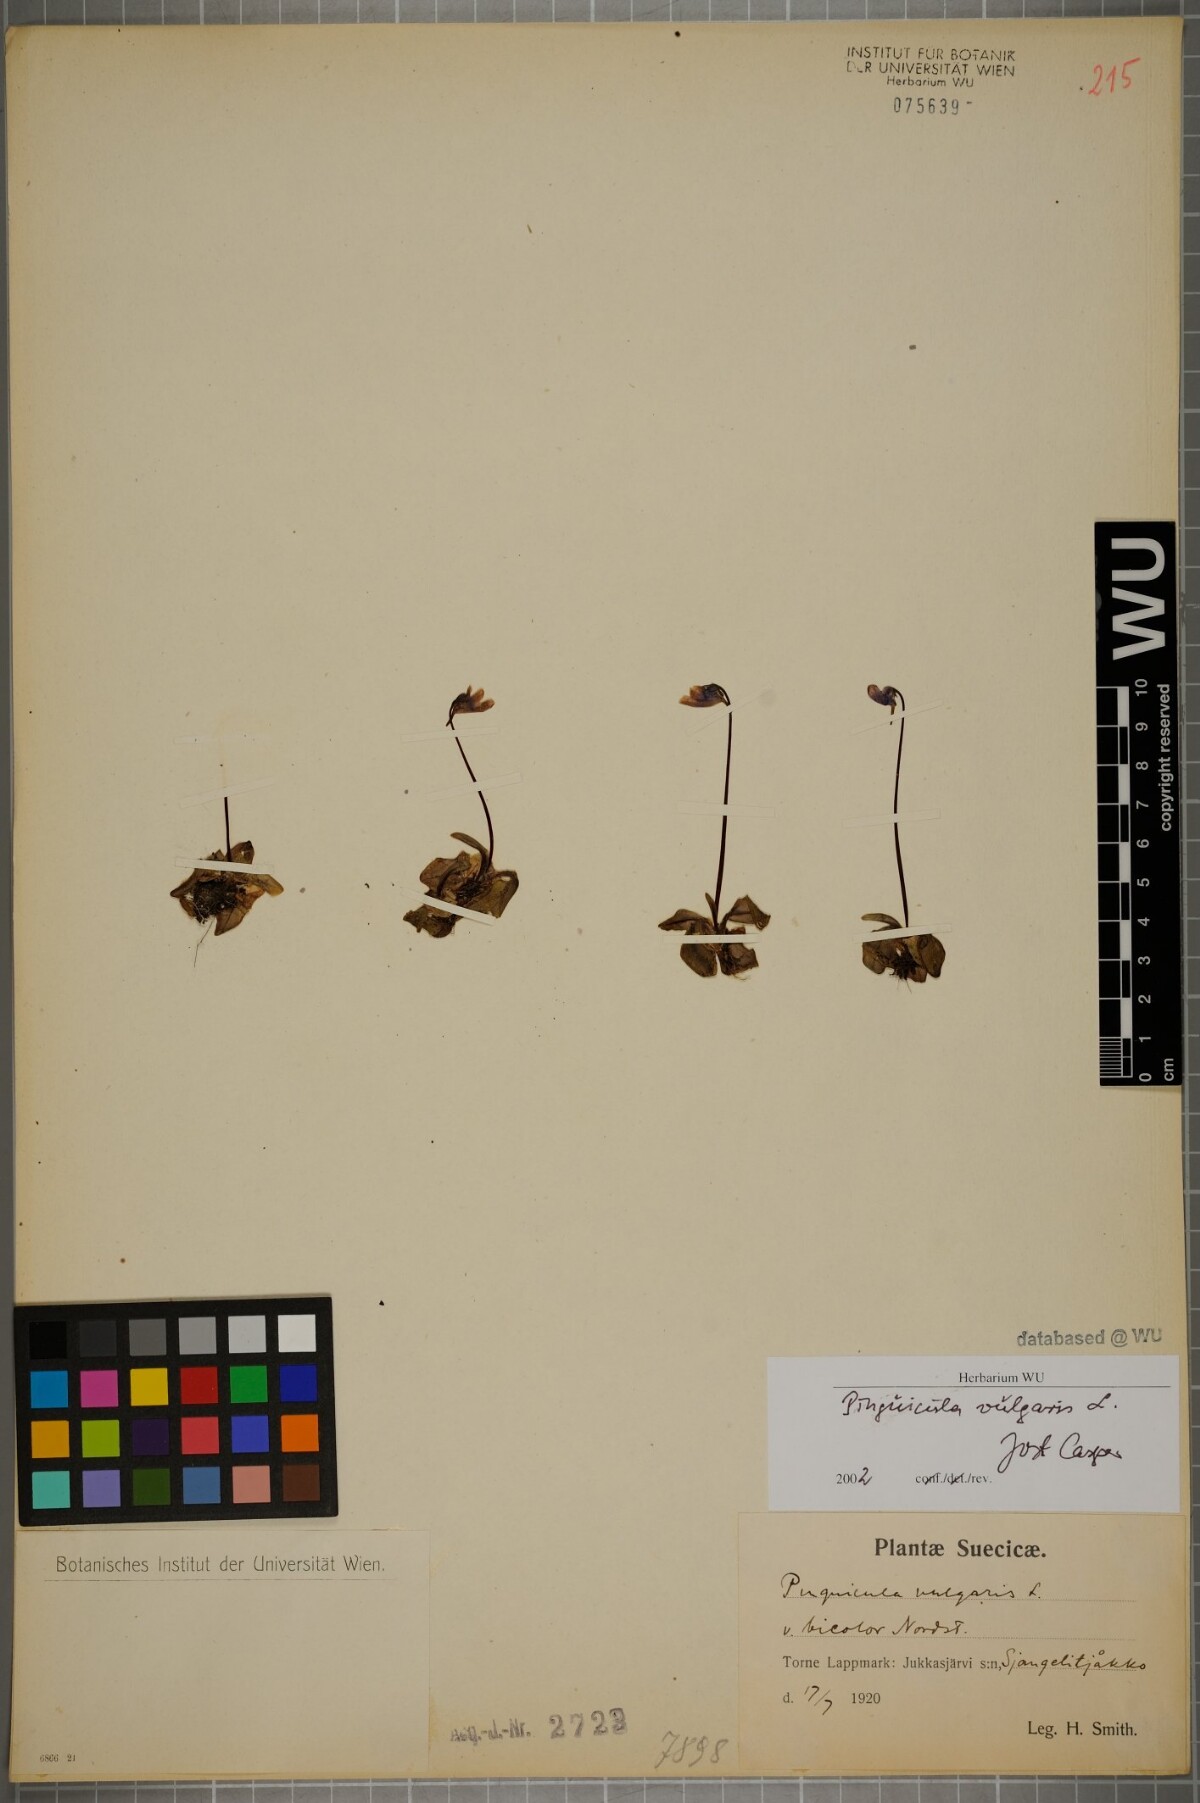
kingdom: Plantae
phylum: Tracheophyta
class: Magnoliopsida
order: Lamiales
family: Lentibulariaceae
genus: Pinguicula
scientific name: Pinguicula vulgaris
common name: Common butterwort
